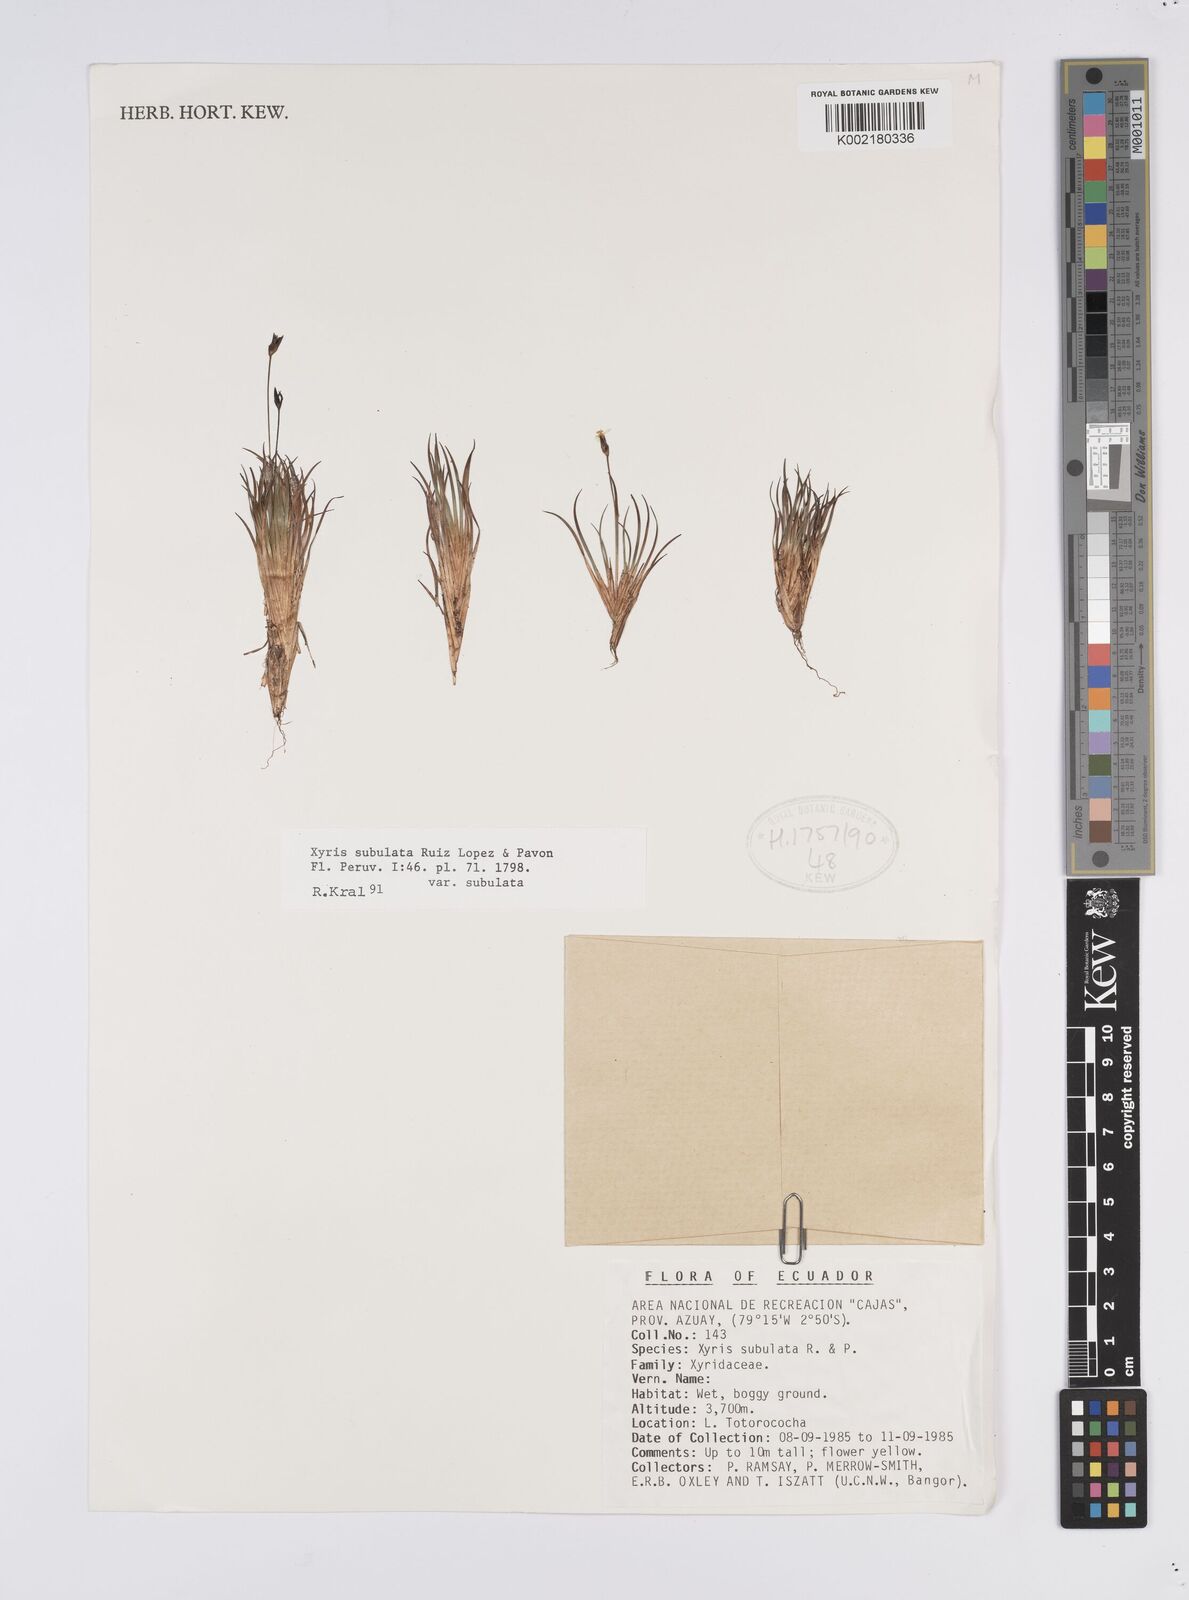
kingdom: Plantae
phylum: Tracheophyta
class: Liliopsida
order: Poales
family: Xyridaceae
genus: Xyris
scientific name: Xyris subulata
